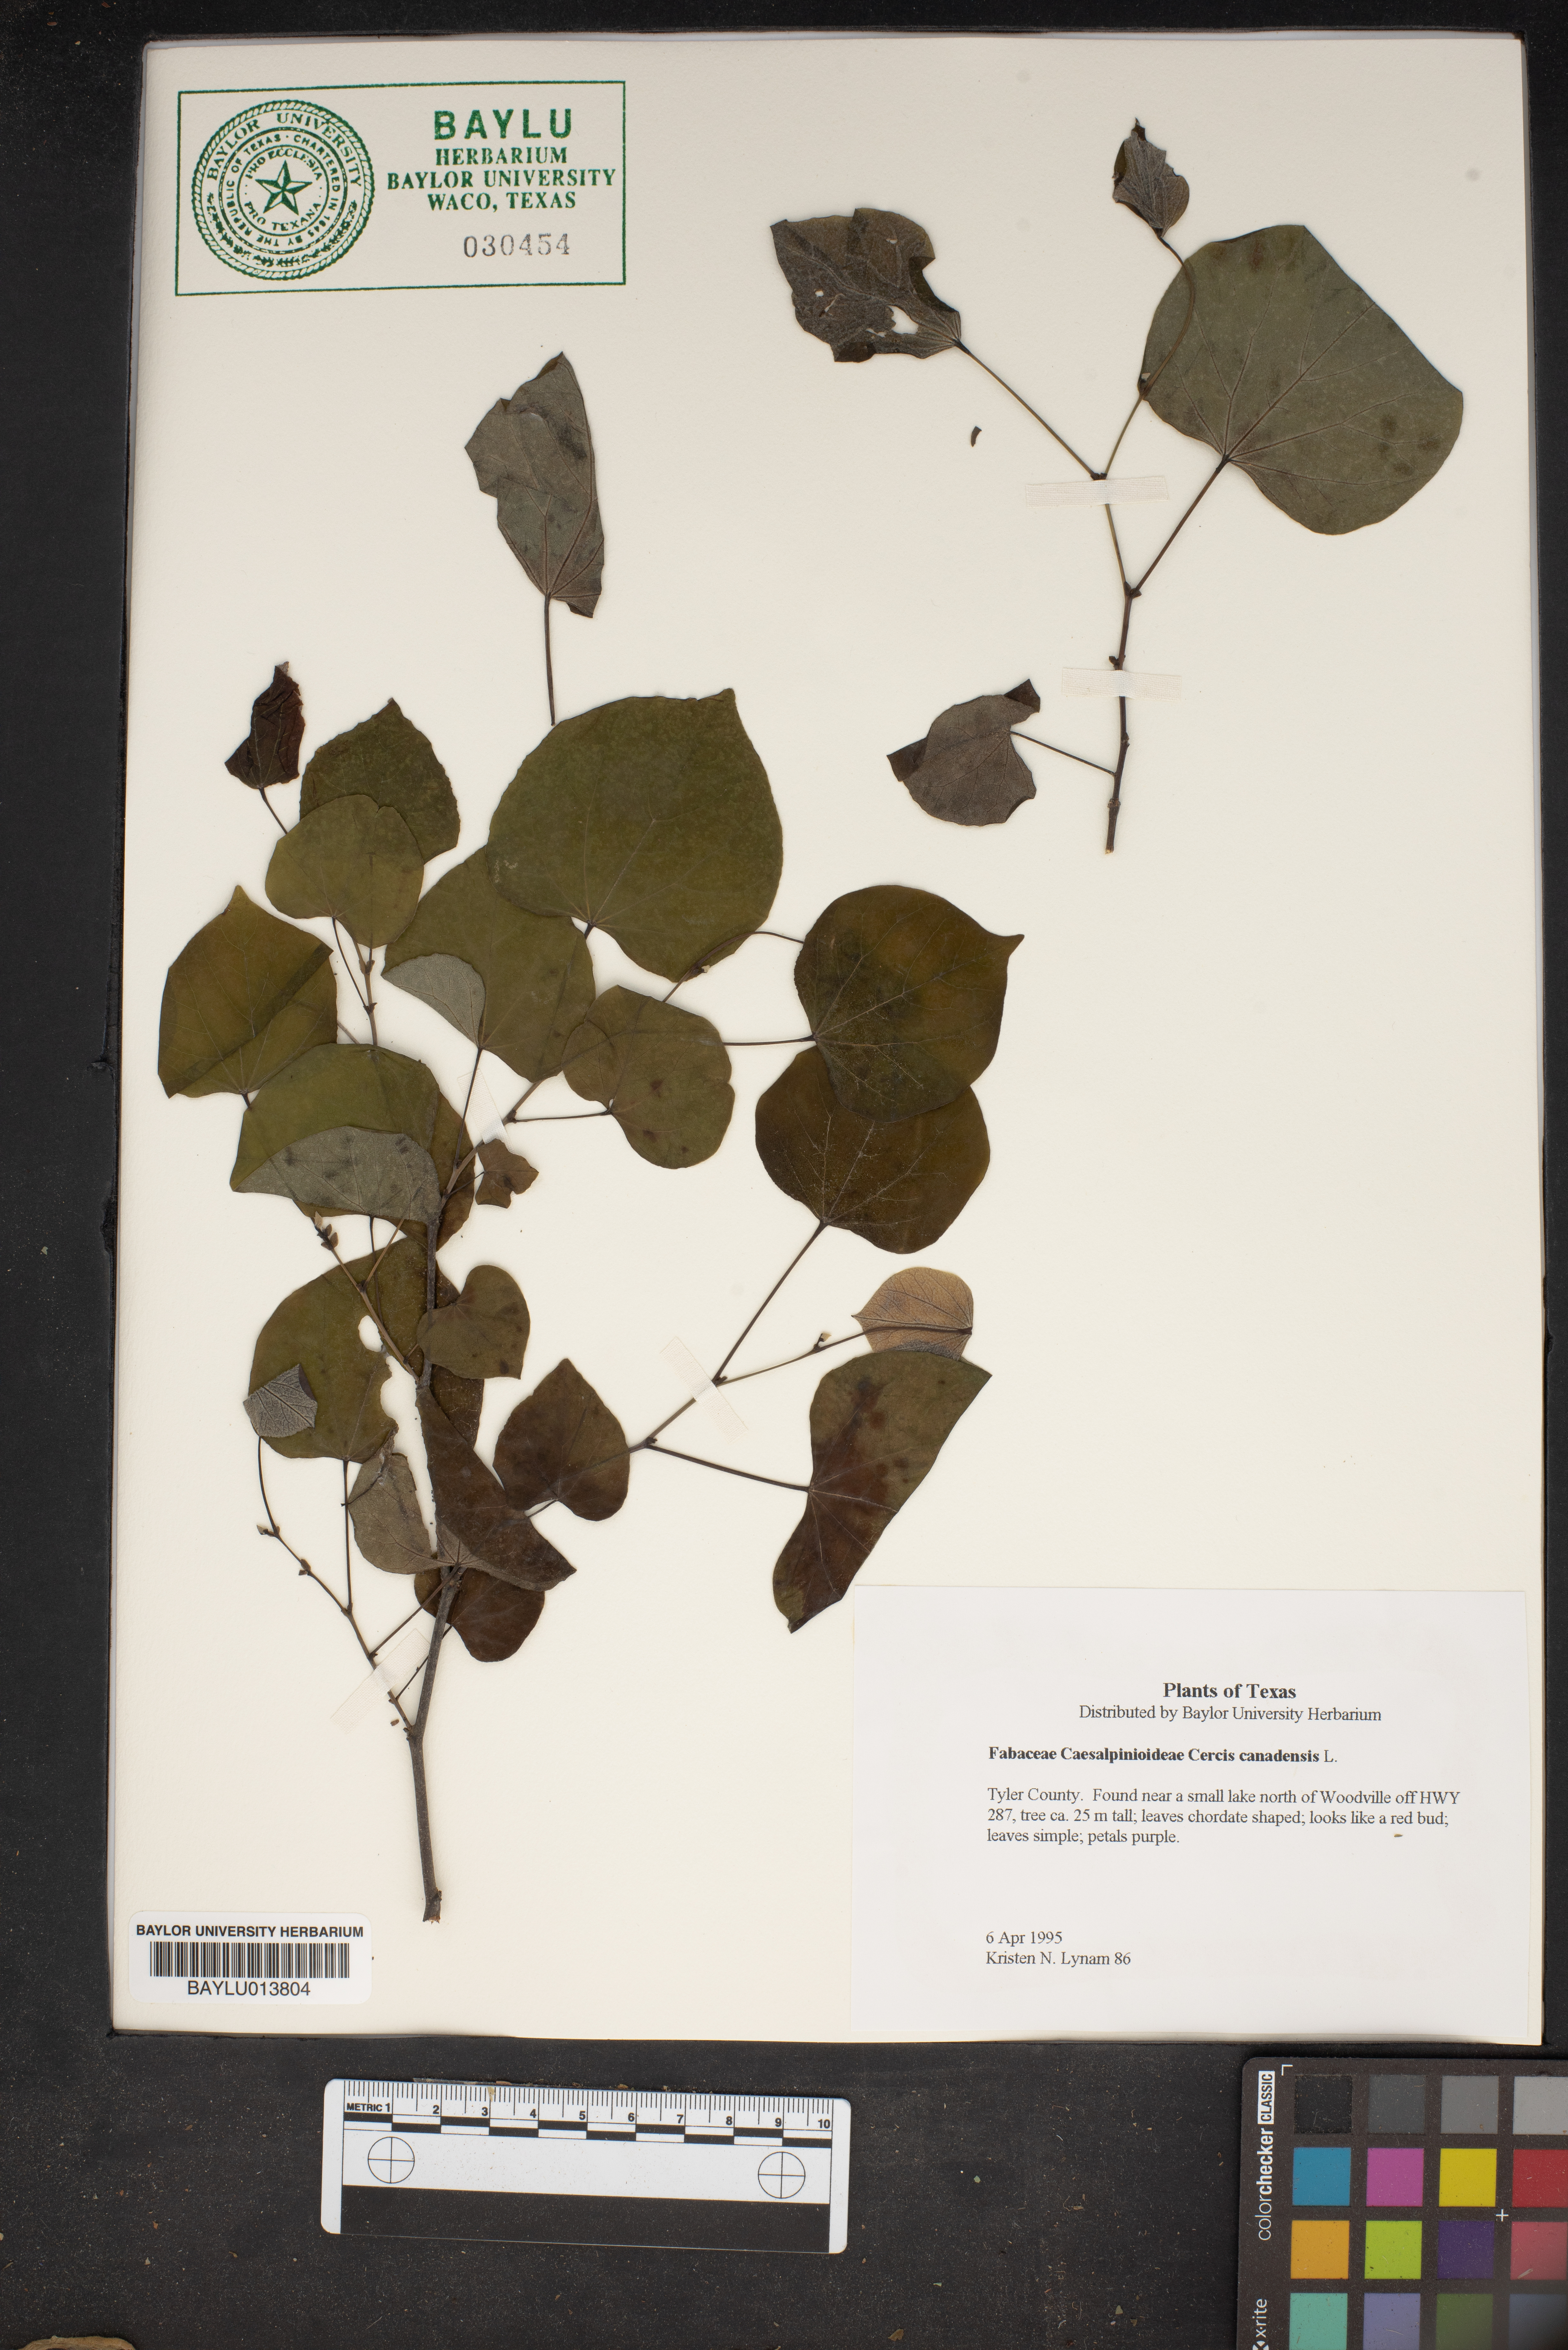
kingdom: Plantae
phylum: Tracheophyta
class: Magnoliopsida
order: Fabales
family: Fabaceae
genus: Cercis
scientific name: Cercis canadensis
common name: Eastern redbud
